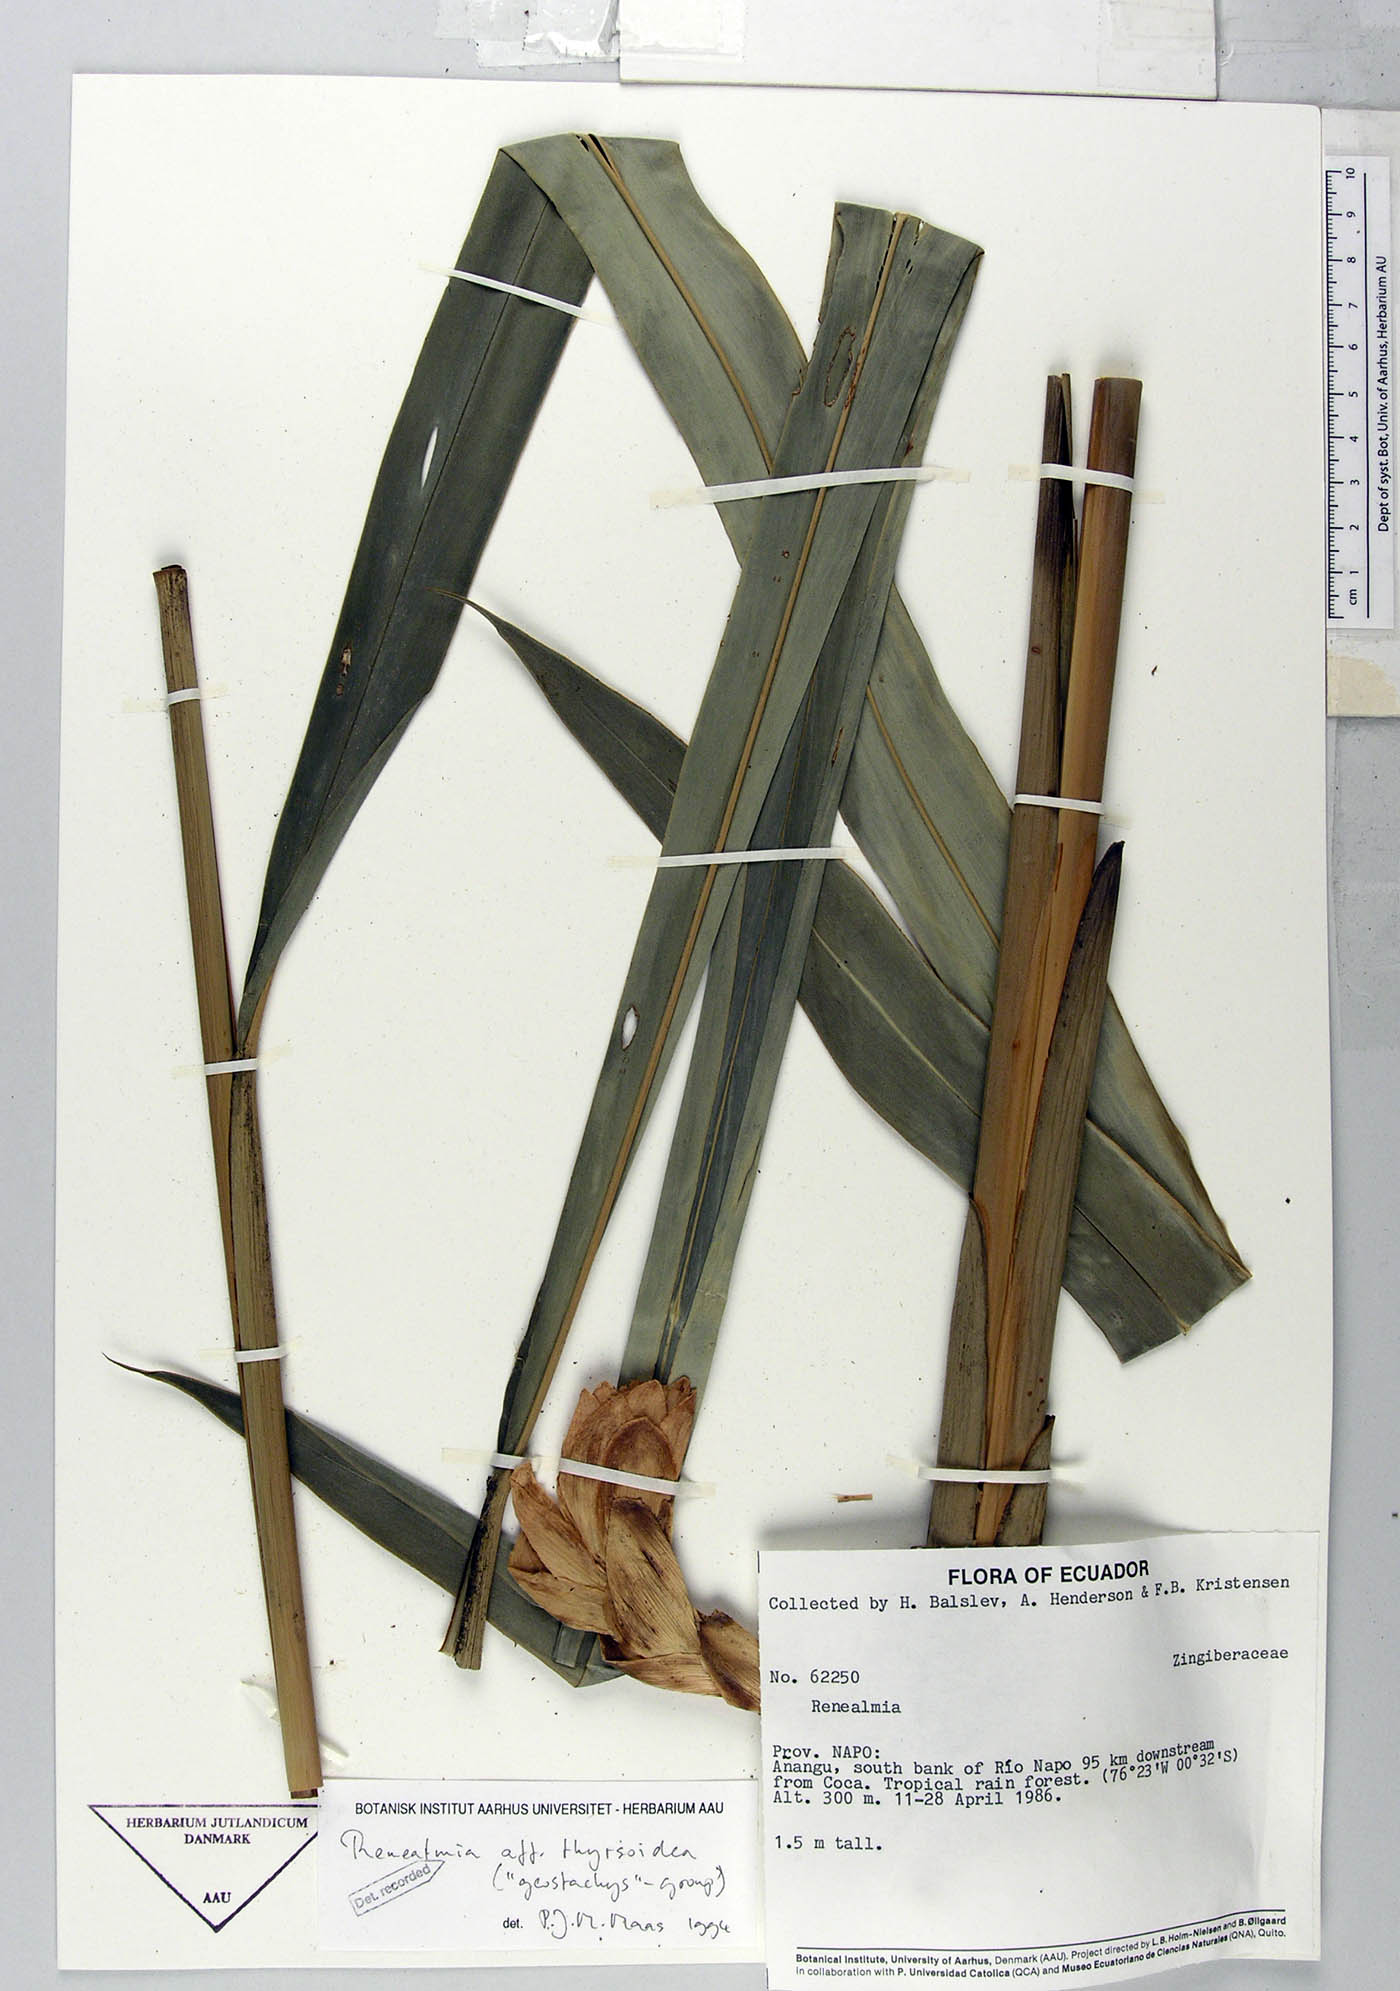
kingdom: Plantae
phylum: Tracheophyta
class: Liliopsida
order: Zingiberales
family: Zingiberaceae
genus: Renealmia
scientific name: Renealmia thyrsoidea
